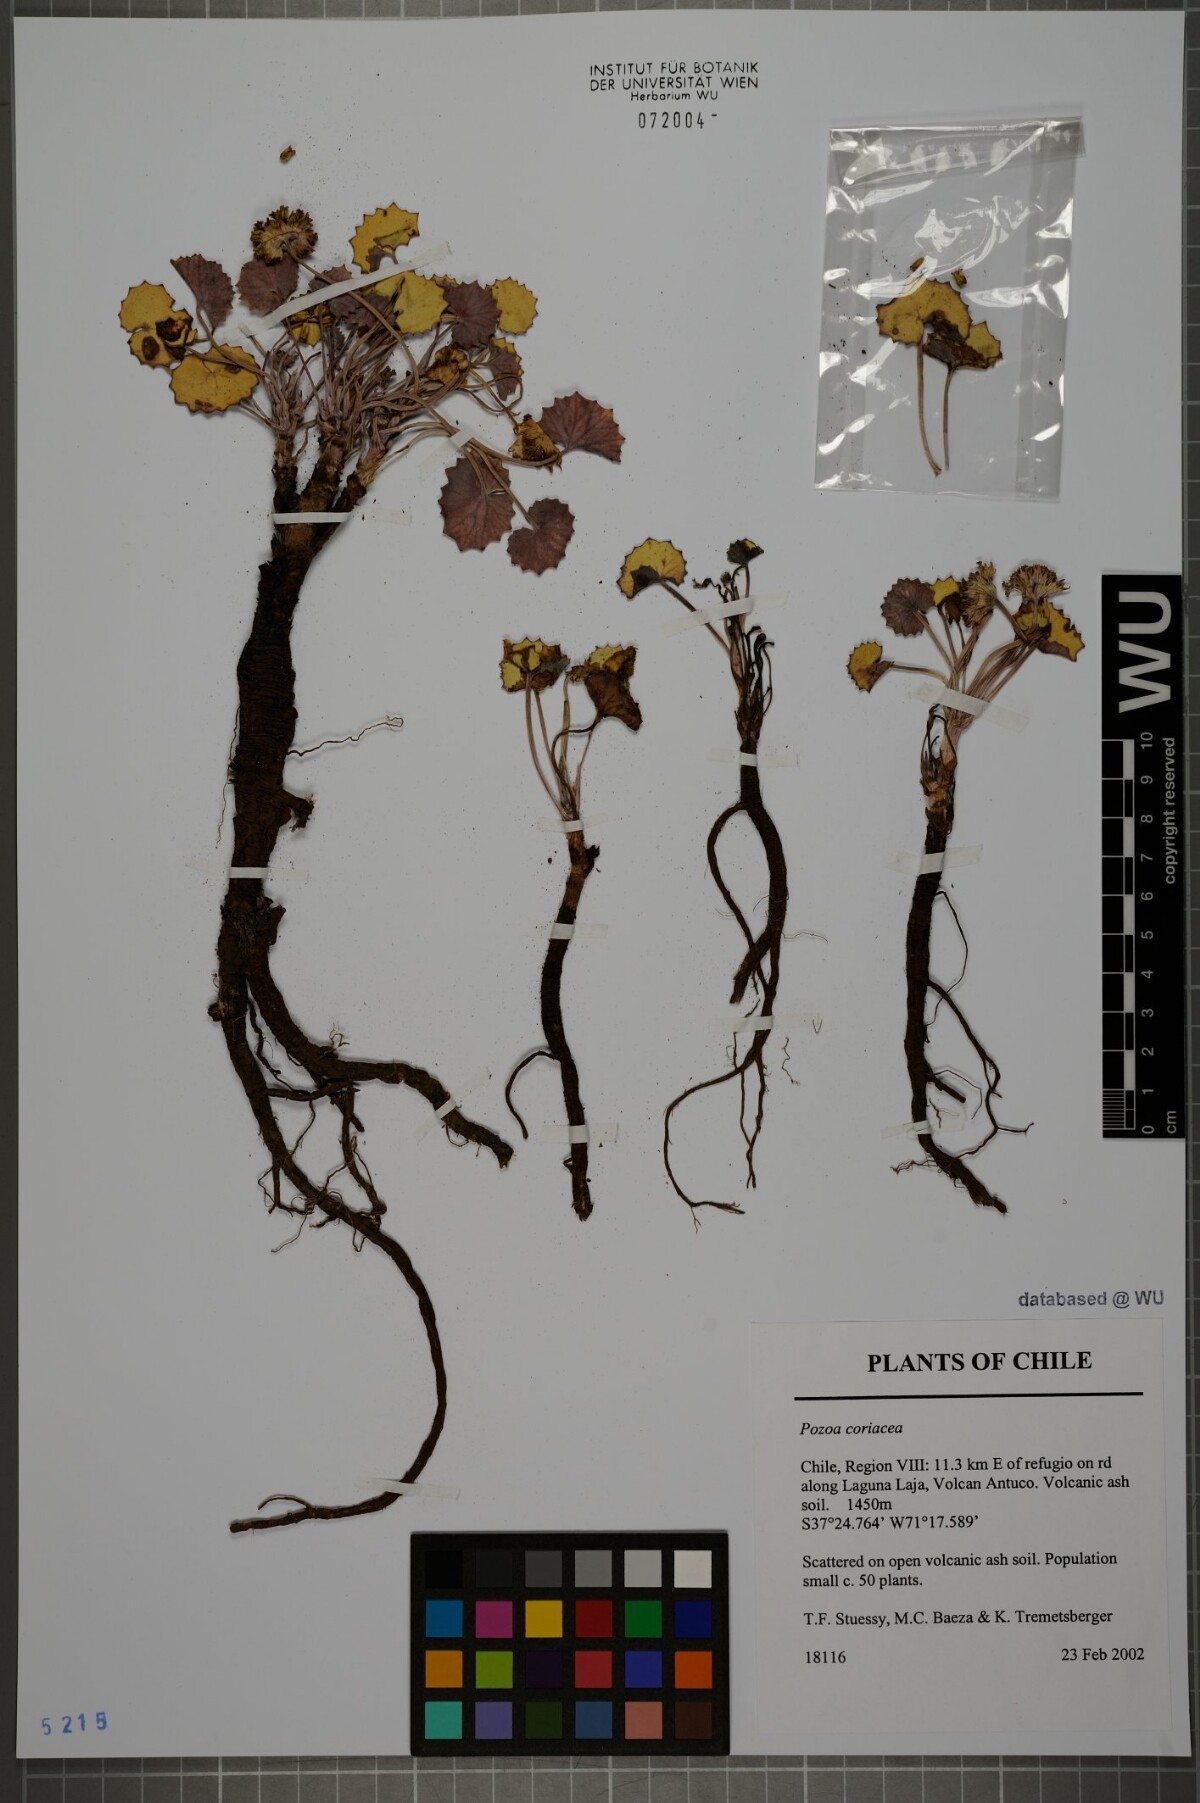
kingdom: Plantae
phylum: Tracheophyta
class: Magnoliopsida
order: Apiales
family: Apiaceae
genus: Pozoa
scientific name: Pozoa coriacea
